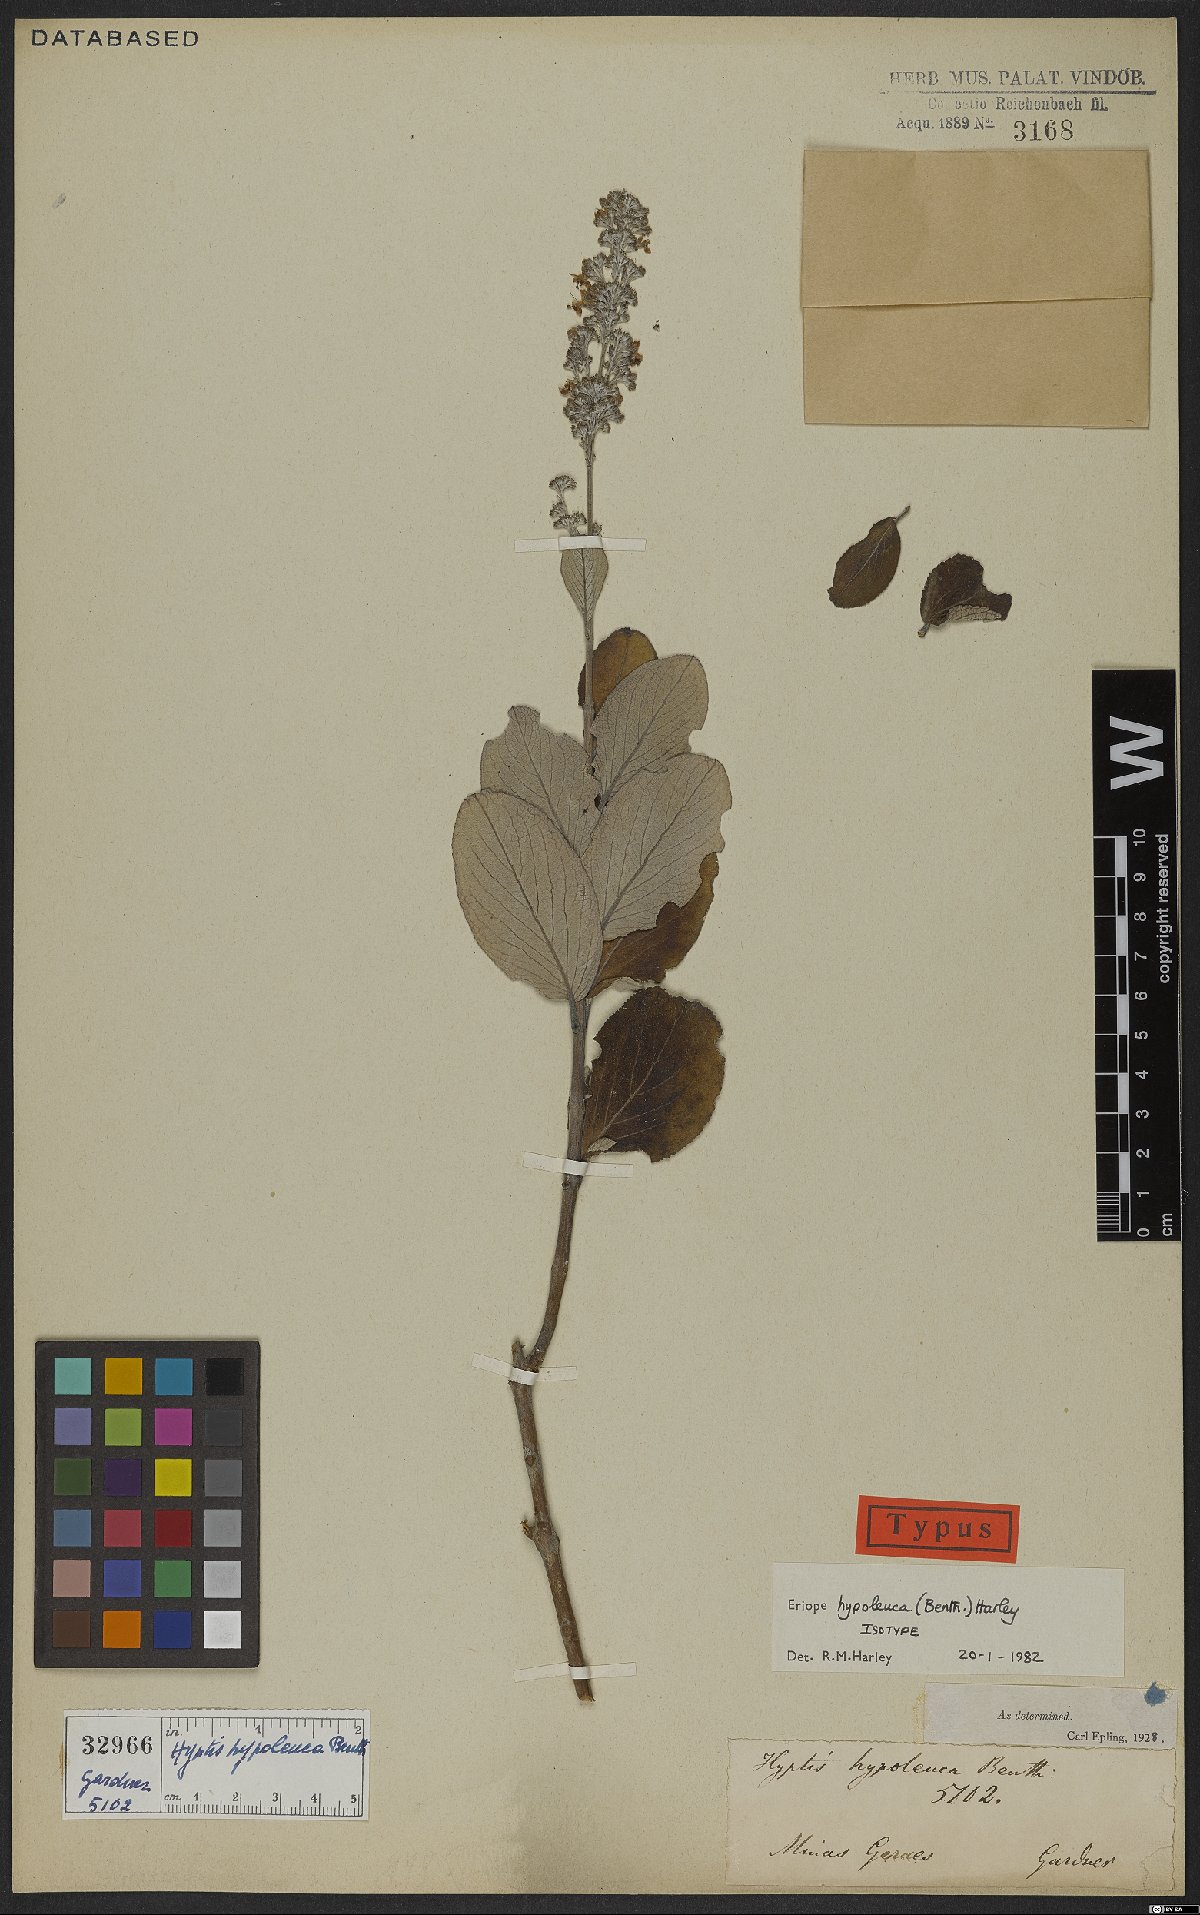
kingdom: Plantae
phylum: Tracheophyta
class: Magnoliopsida
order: Lamiales
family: Lamiaceae
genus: Eriope
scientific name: Eriope hypoleuca
